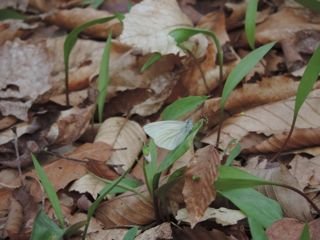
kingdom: Animalia
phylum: Arthropoda
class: Insecta
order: Lepidoptera
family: Pieridae
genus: Pieris
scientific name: Pieris virginiensis
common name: West Virginia White
